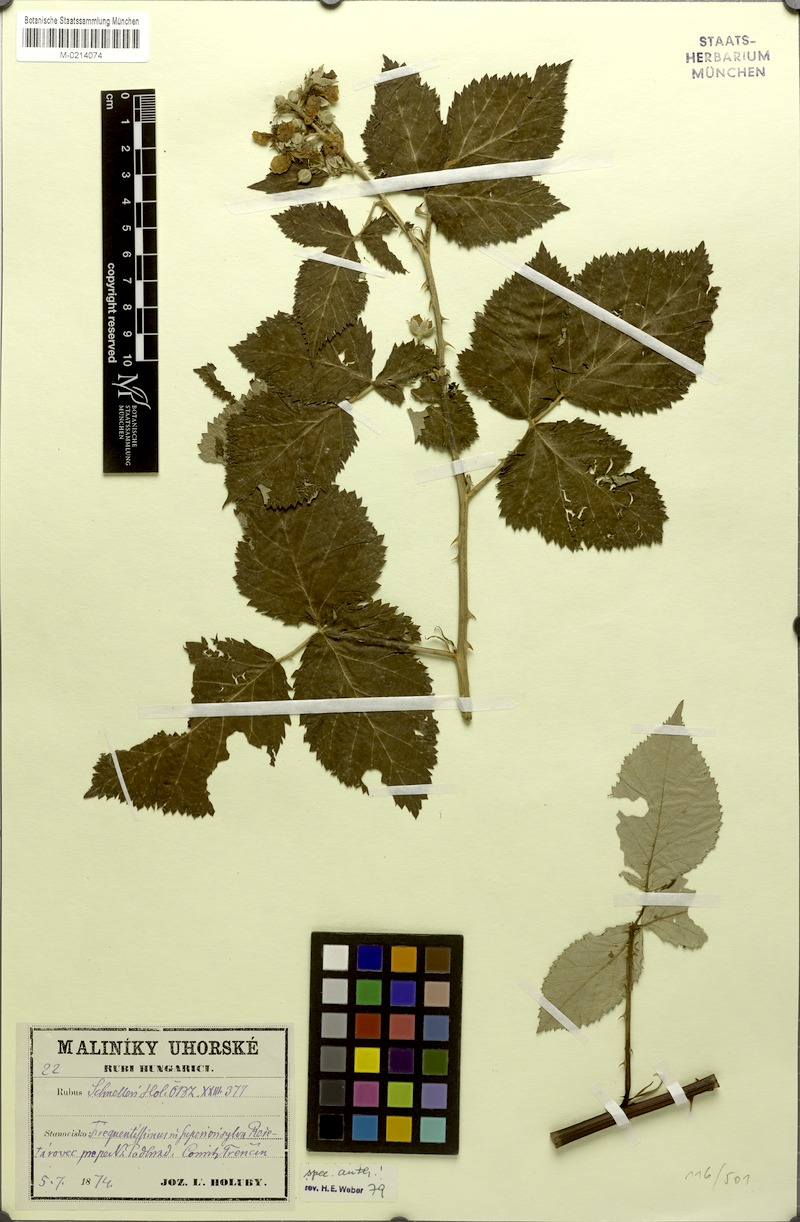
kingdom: Plantae
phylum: Tracheophyta
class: Magnoliopsida
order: Rosales
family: Rosaceae
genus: Rubus
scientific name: Rubus schnelleri
